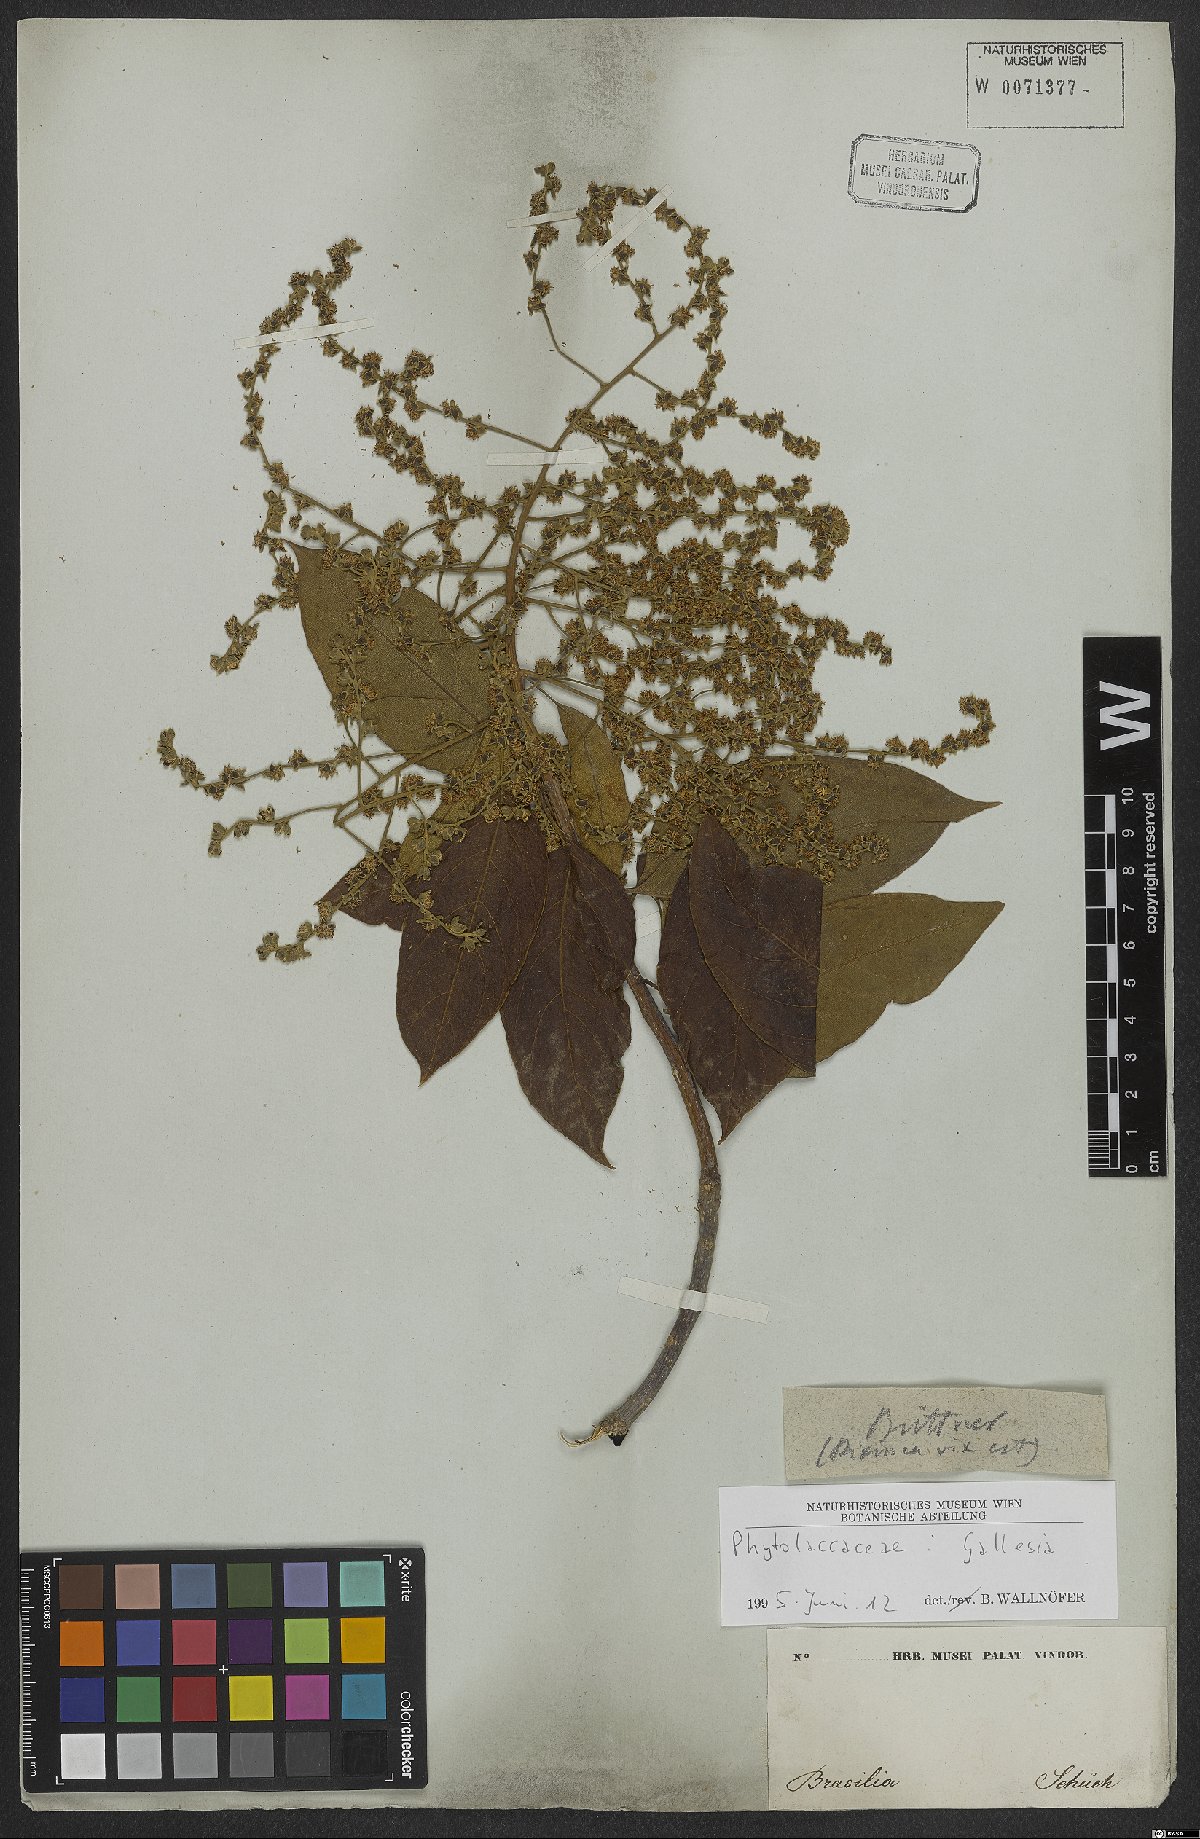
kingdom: Plantae
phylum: Tracheophyta
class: Magnoliopsida
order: Caryophyllales
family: Phytolaccaceae
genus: Gallesia
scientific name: Gallesia
